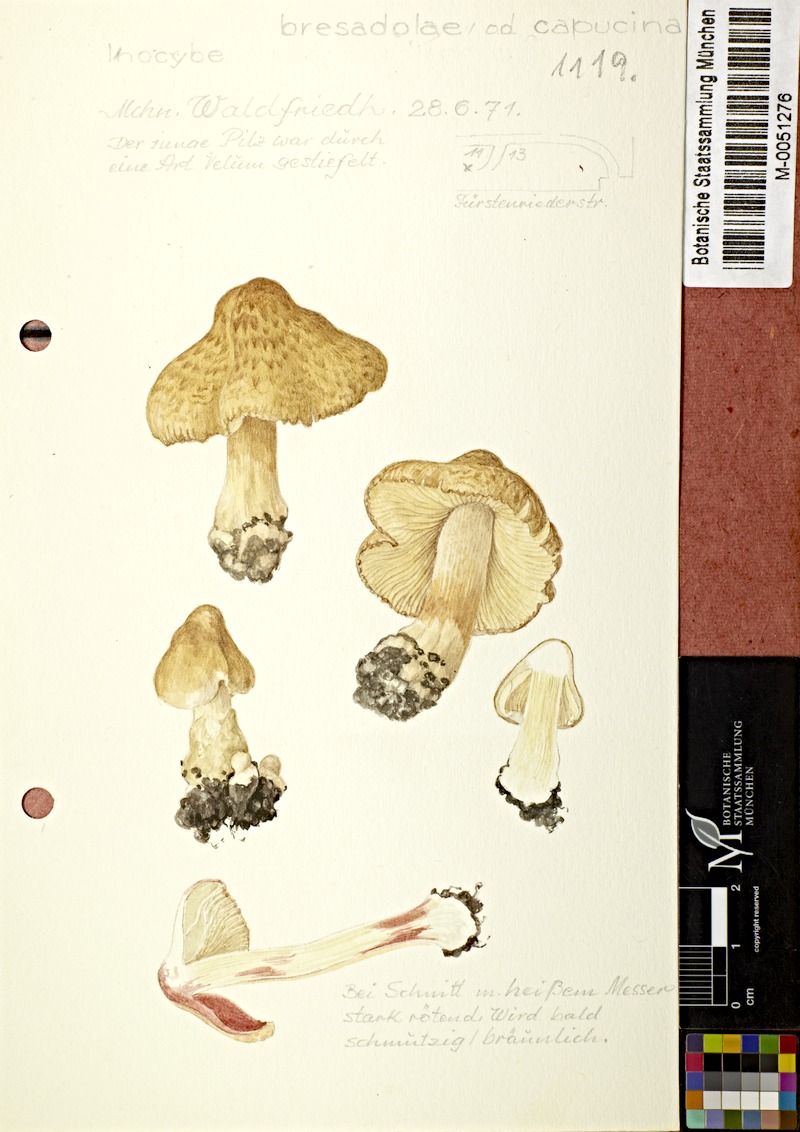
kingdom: Fungi
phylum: Basidiomycota
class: Agaricomycetes
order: Agaricales
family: Inocybaceae
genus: Inocybe
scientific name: Inocybe bresadolae
